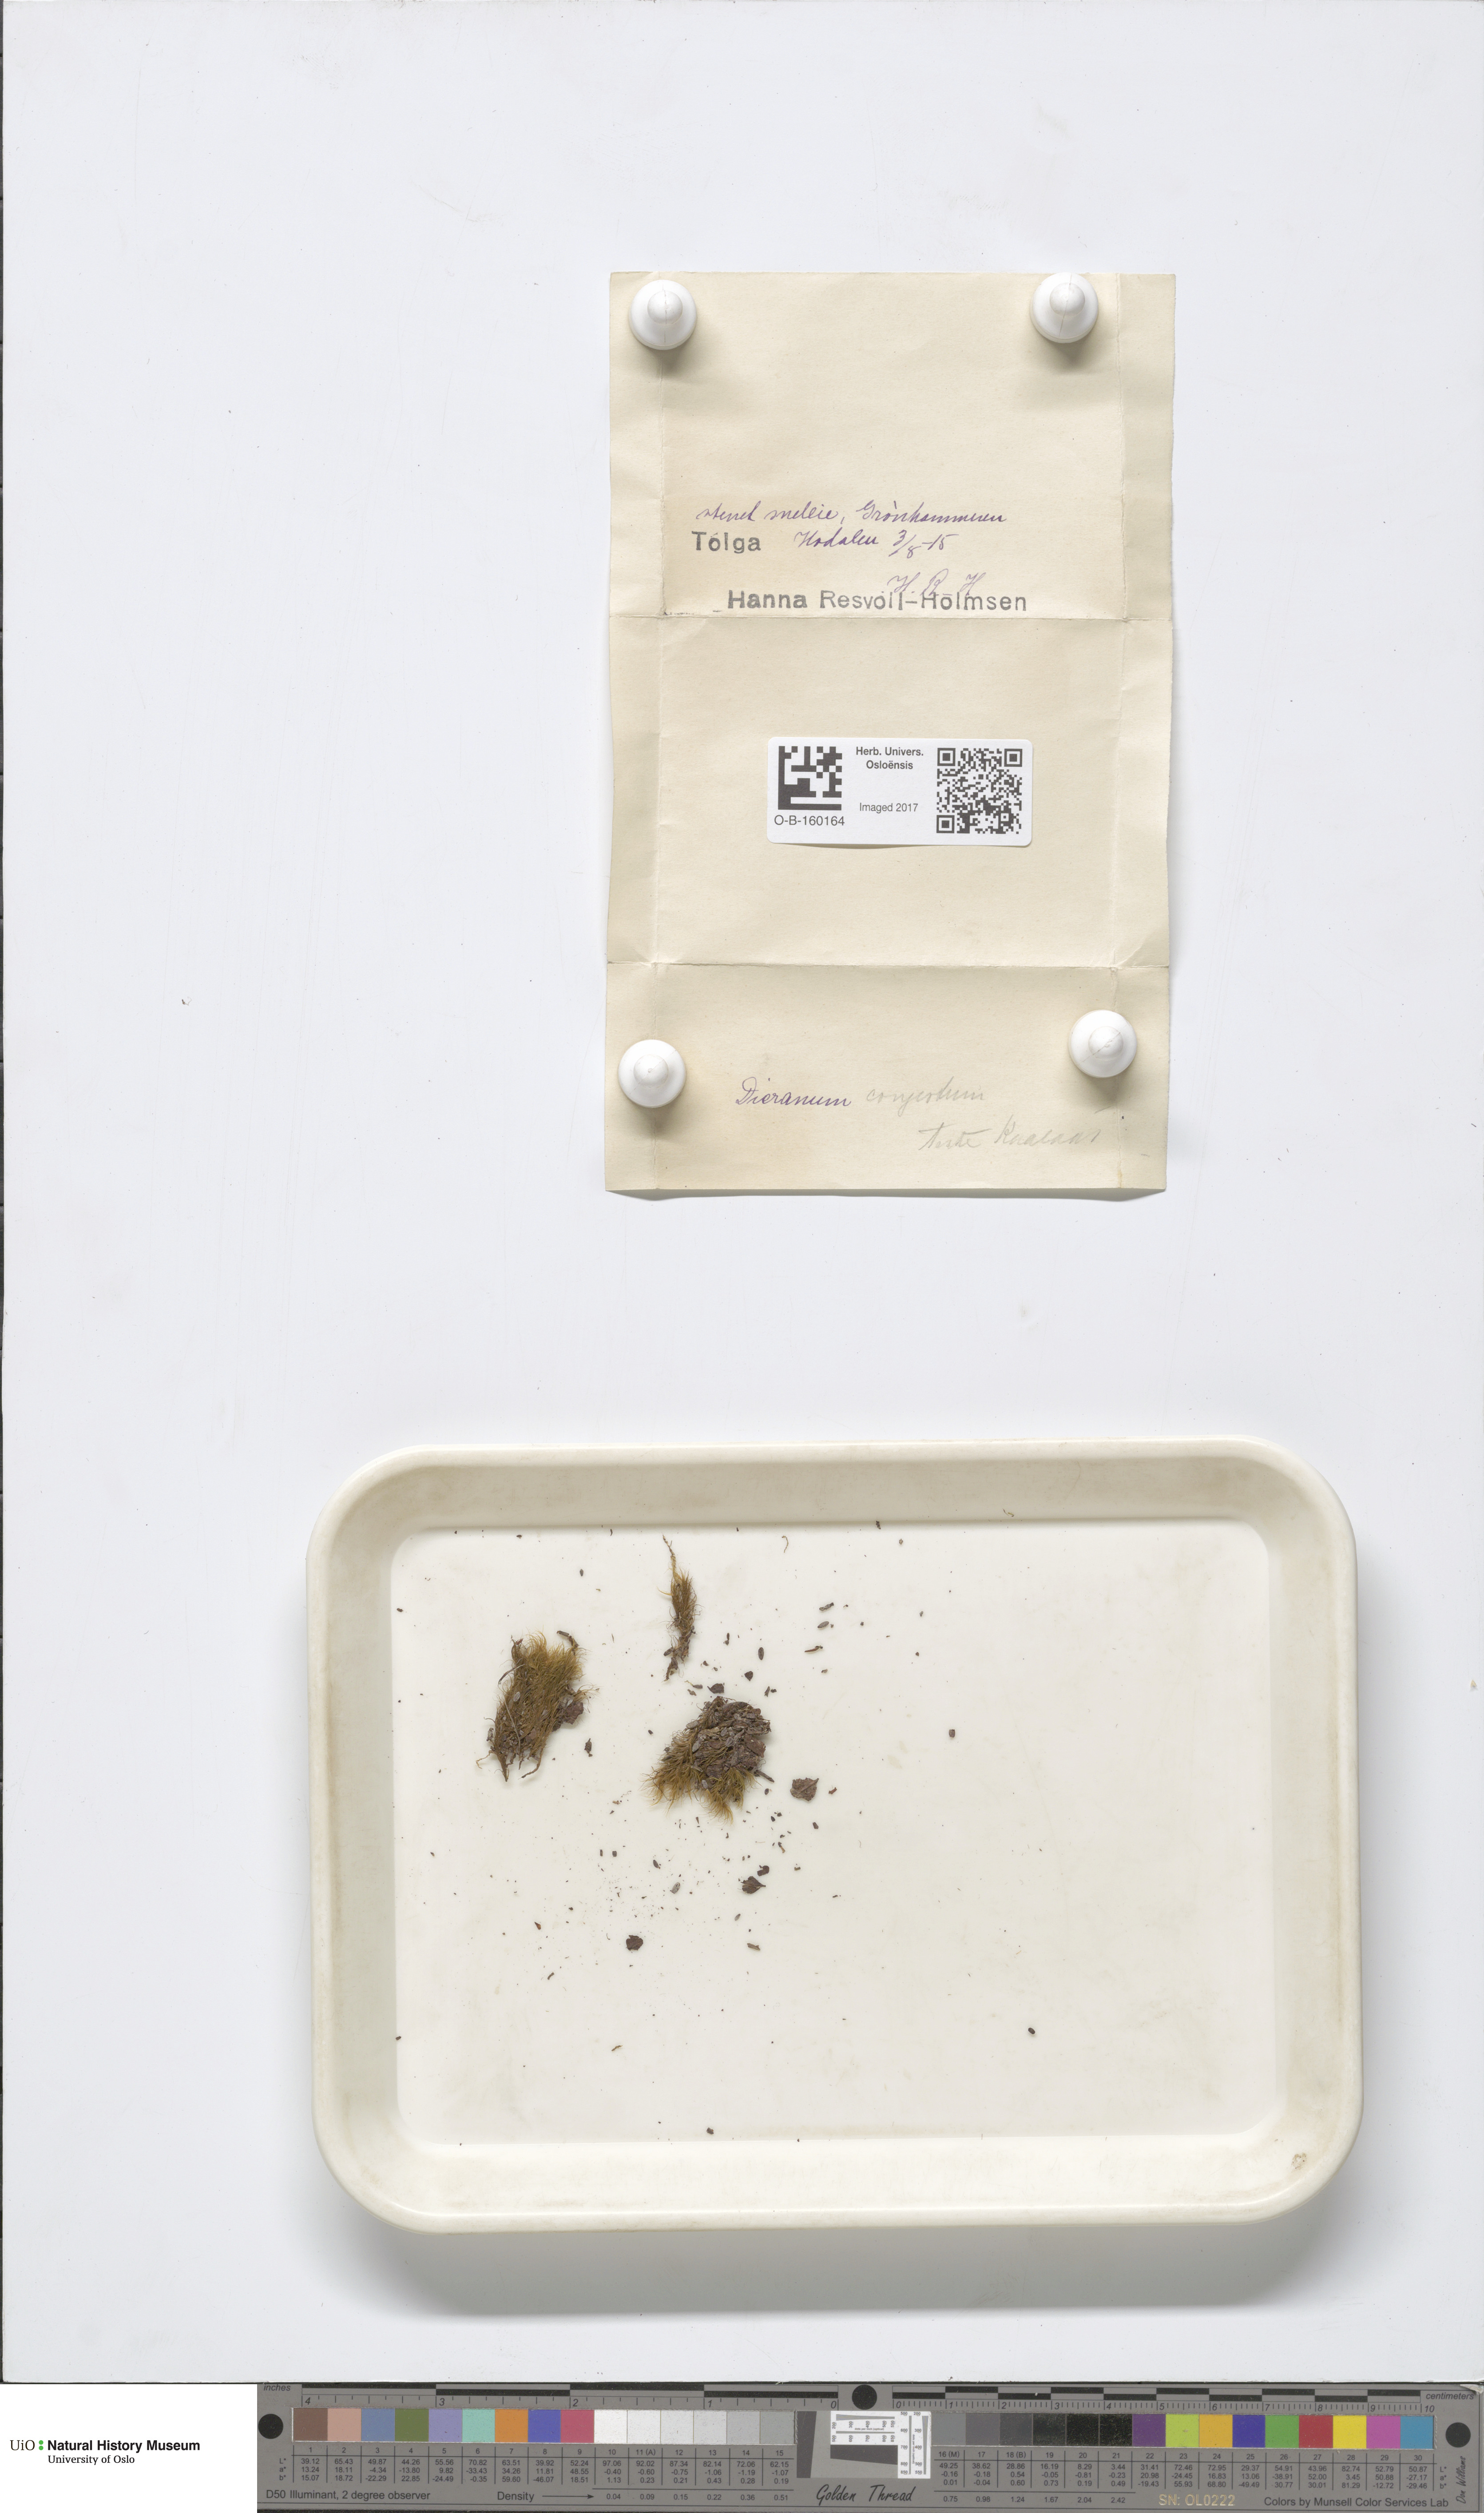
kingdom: Plantae
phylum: Bryophyta
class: Bryopsida
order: Dicranales
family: Dicranaceae
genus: Dicranum
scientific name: Dicranum flexicaule
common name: Bendy heron s-bill moss
